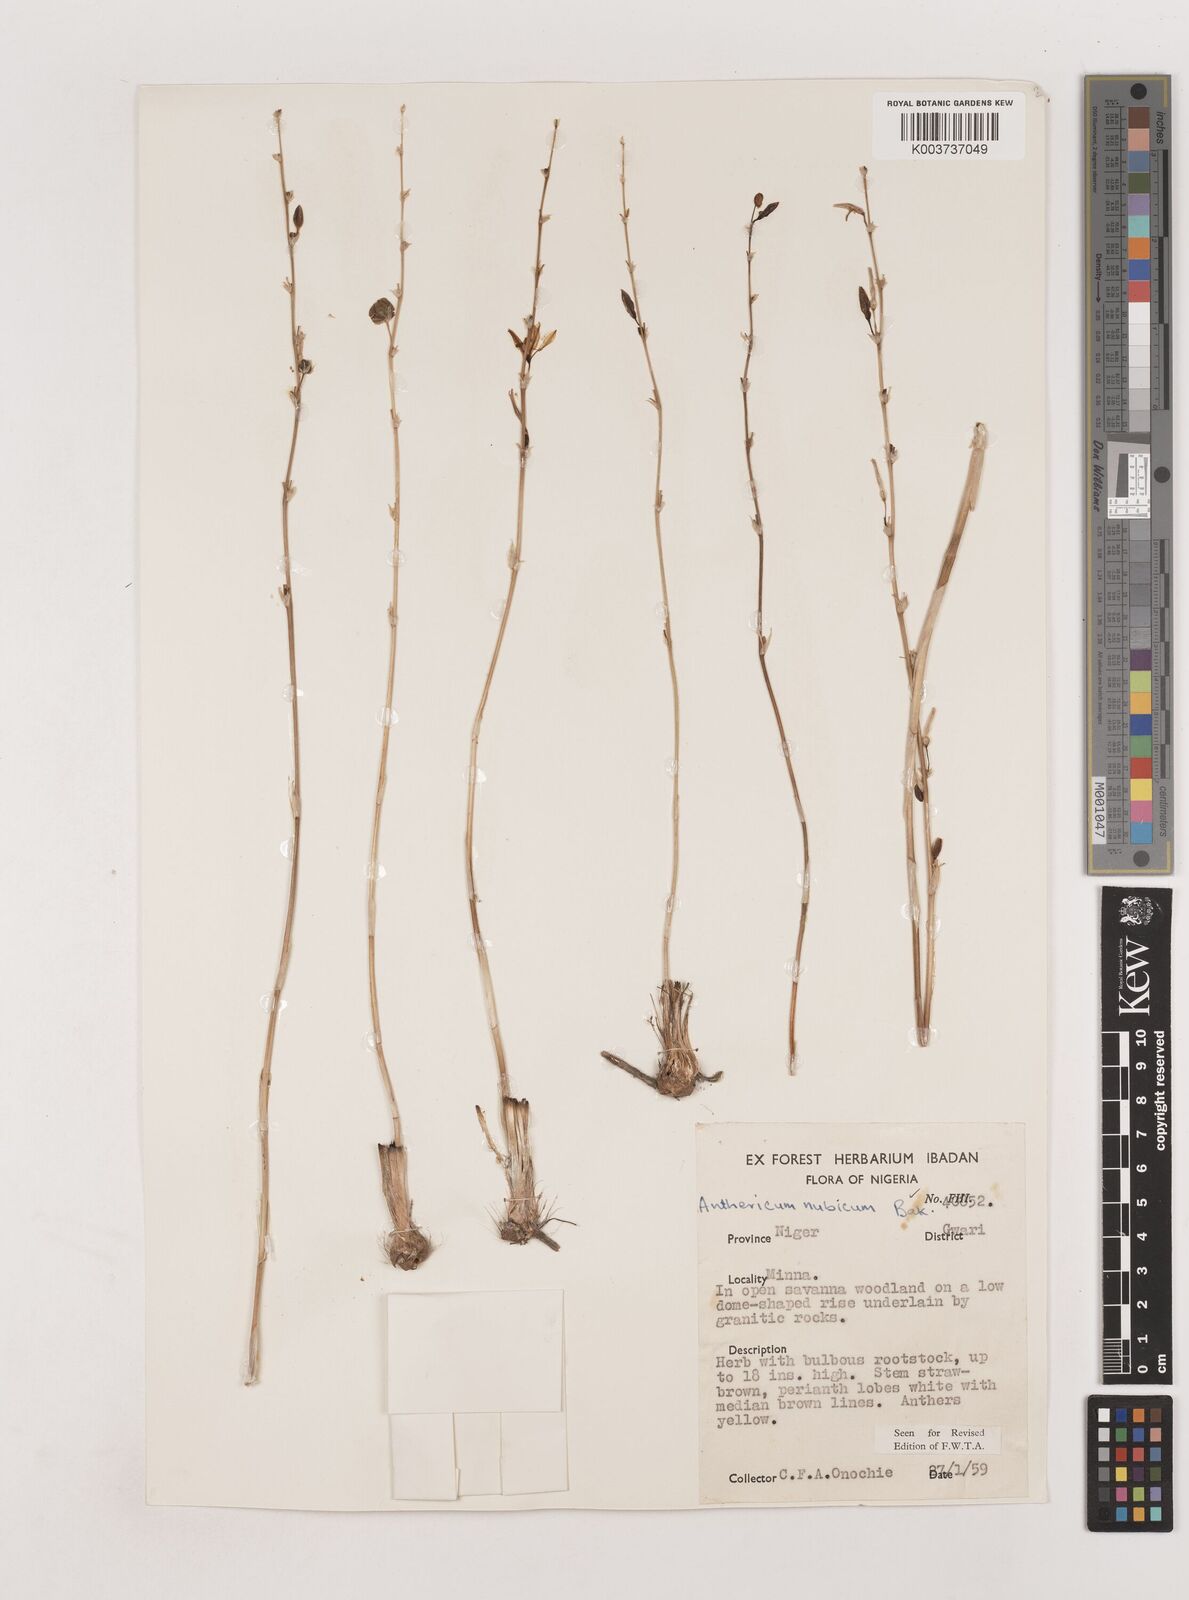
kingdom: Plantae
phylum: Tracheophyta
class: Liliopsida
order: Asparagales
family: Asparagaceae
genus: Chlorophytum
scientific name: Chlorophytum nubicum
